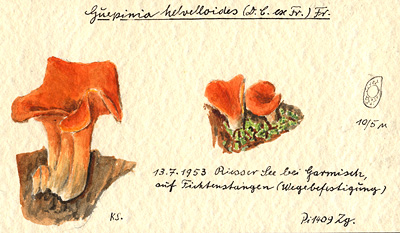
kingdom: Fungi
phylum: Basidiomycota
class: Agaricomycetes
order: Auriculariales
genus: Guepinia
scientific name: Guepinia helvelloides
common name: Salmon salad
